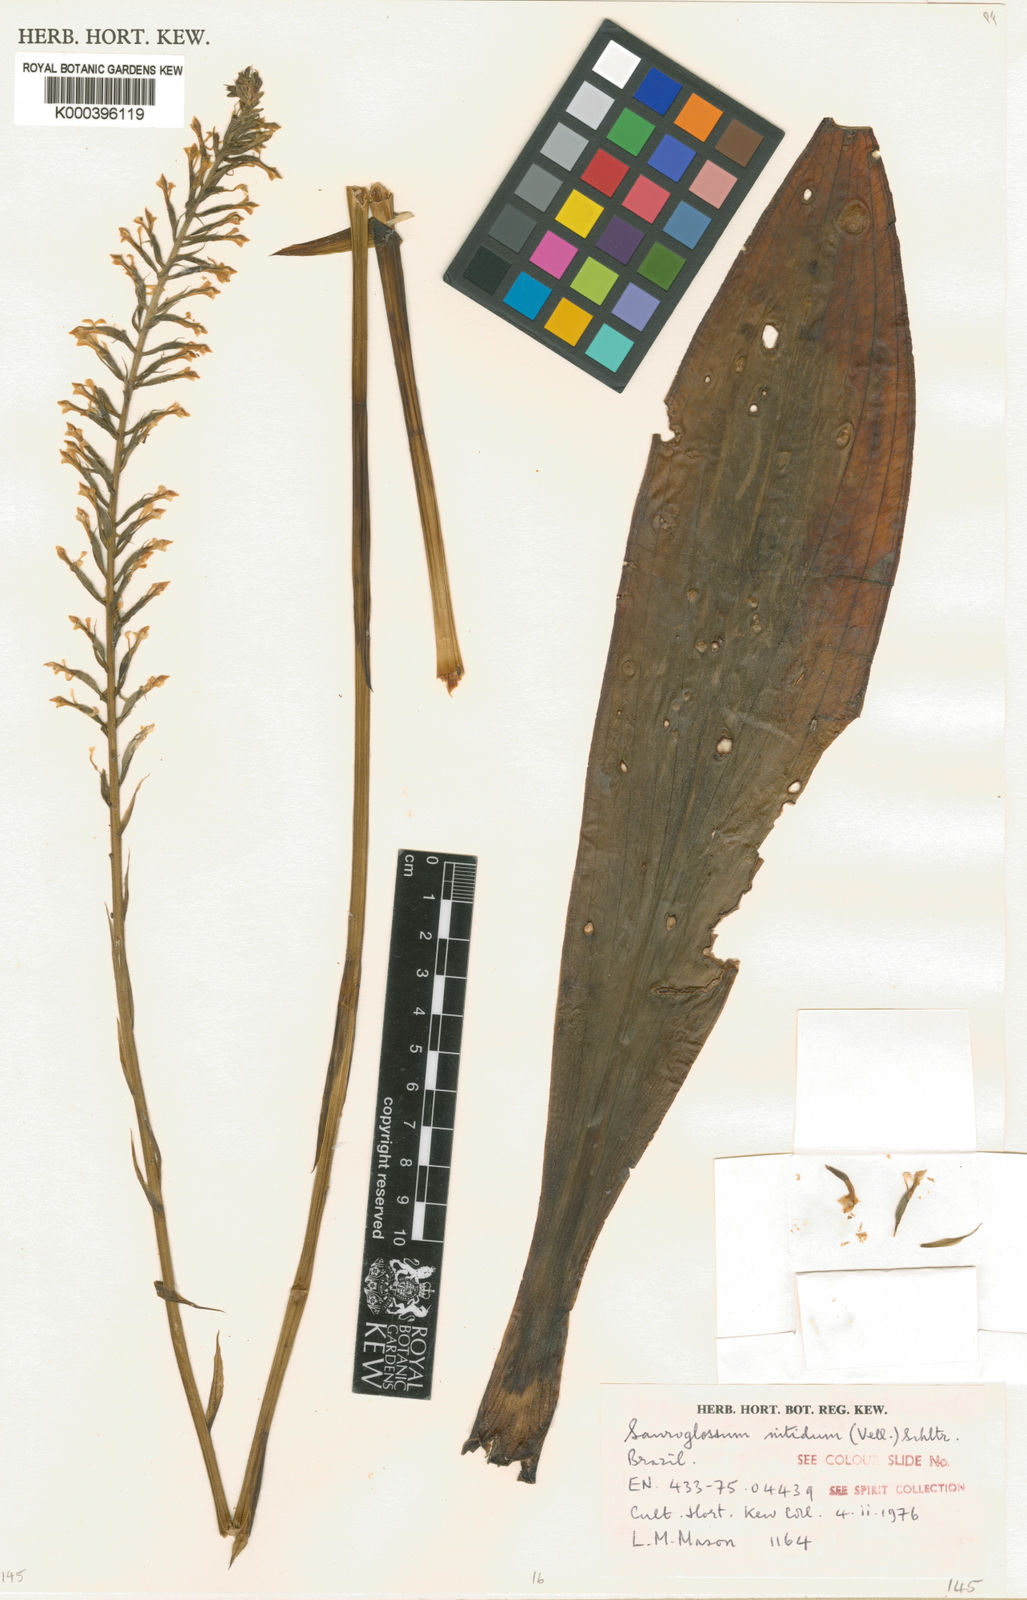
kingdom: Plantae
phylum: Tracheophyta
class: Liliopsida
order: Asparagales
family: Orchidaceae
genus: Sauroglossum
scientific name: Sauroglossum elatum
